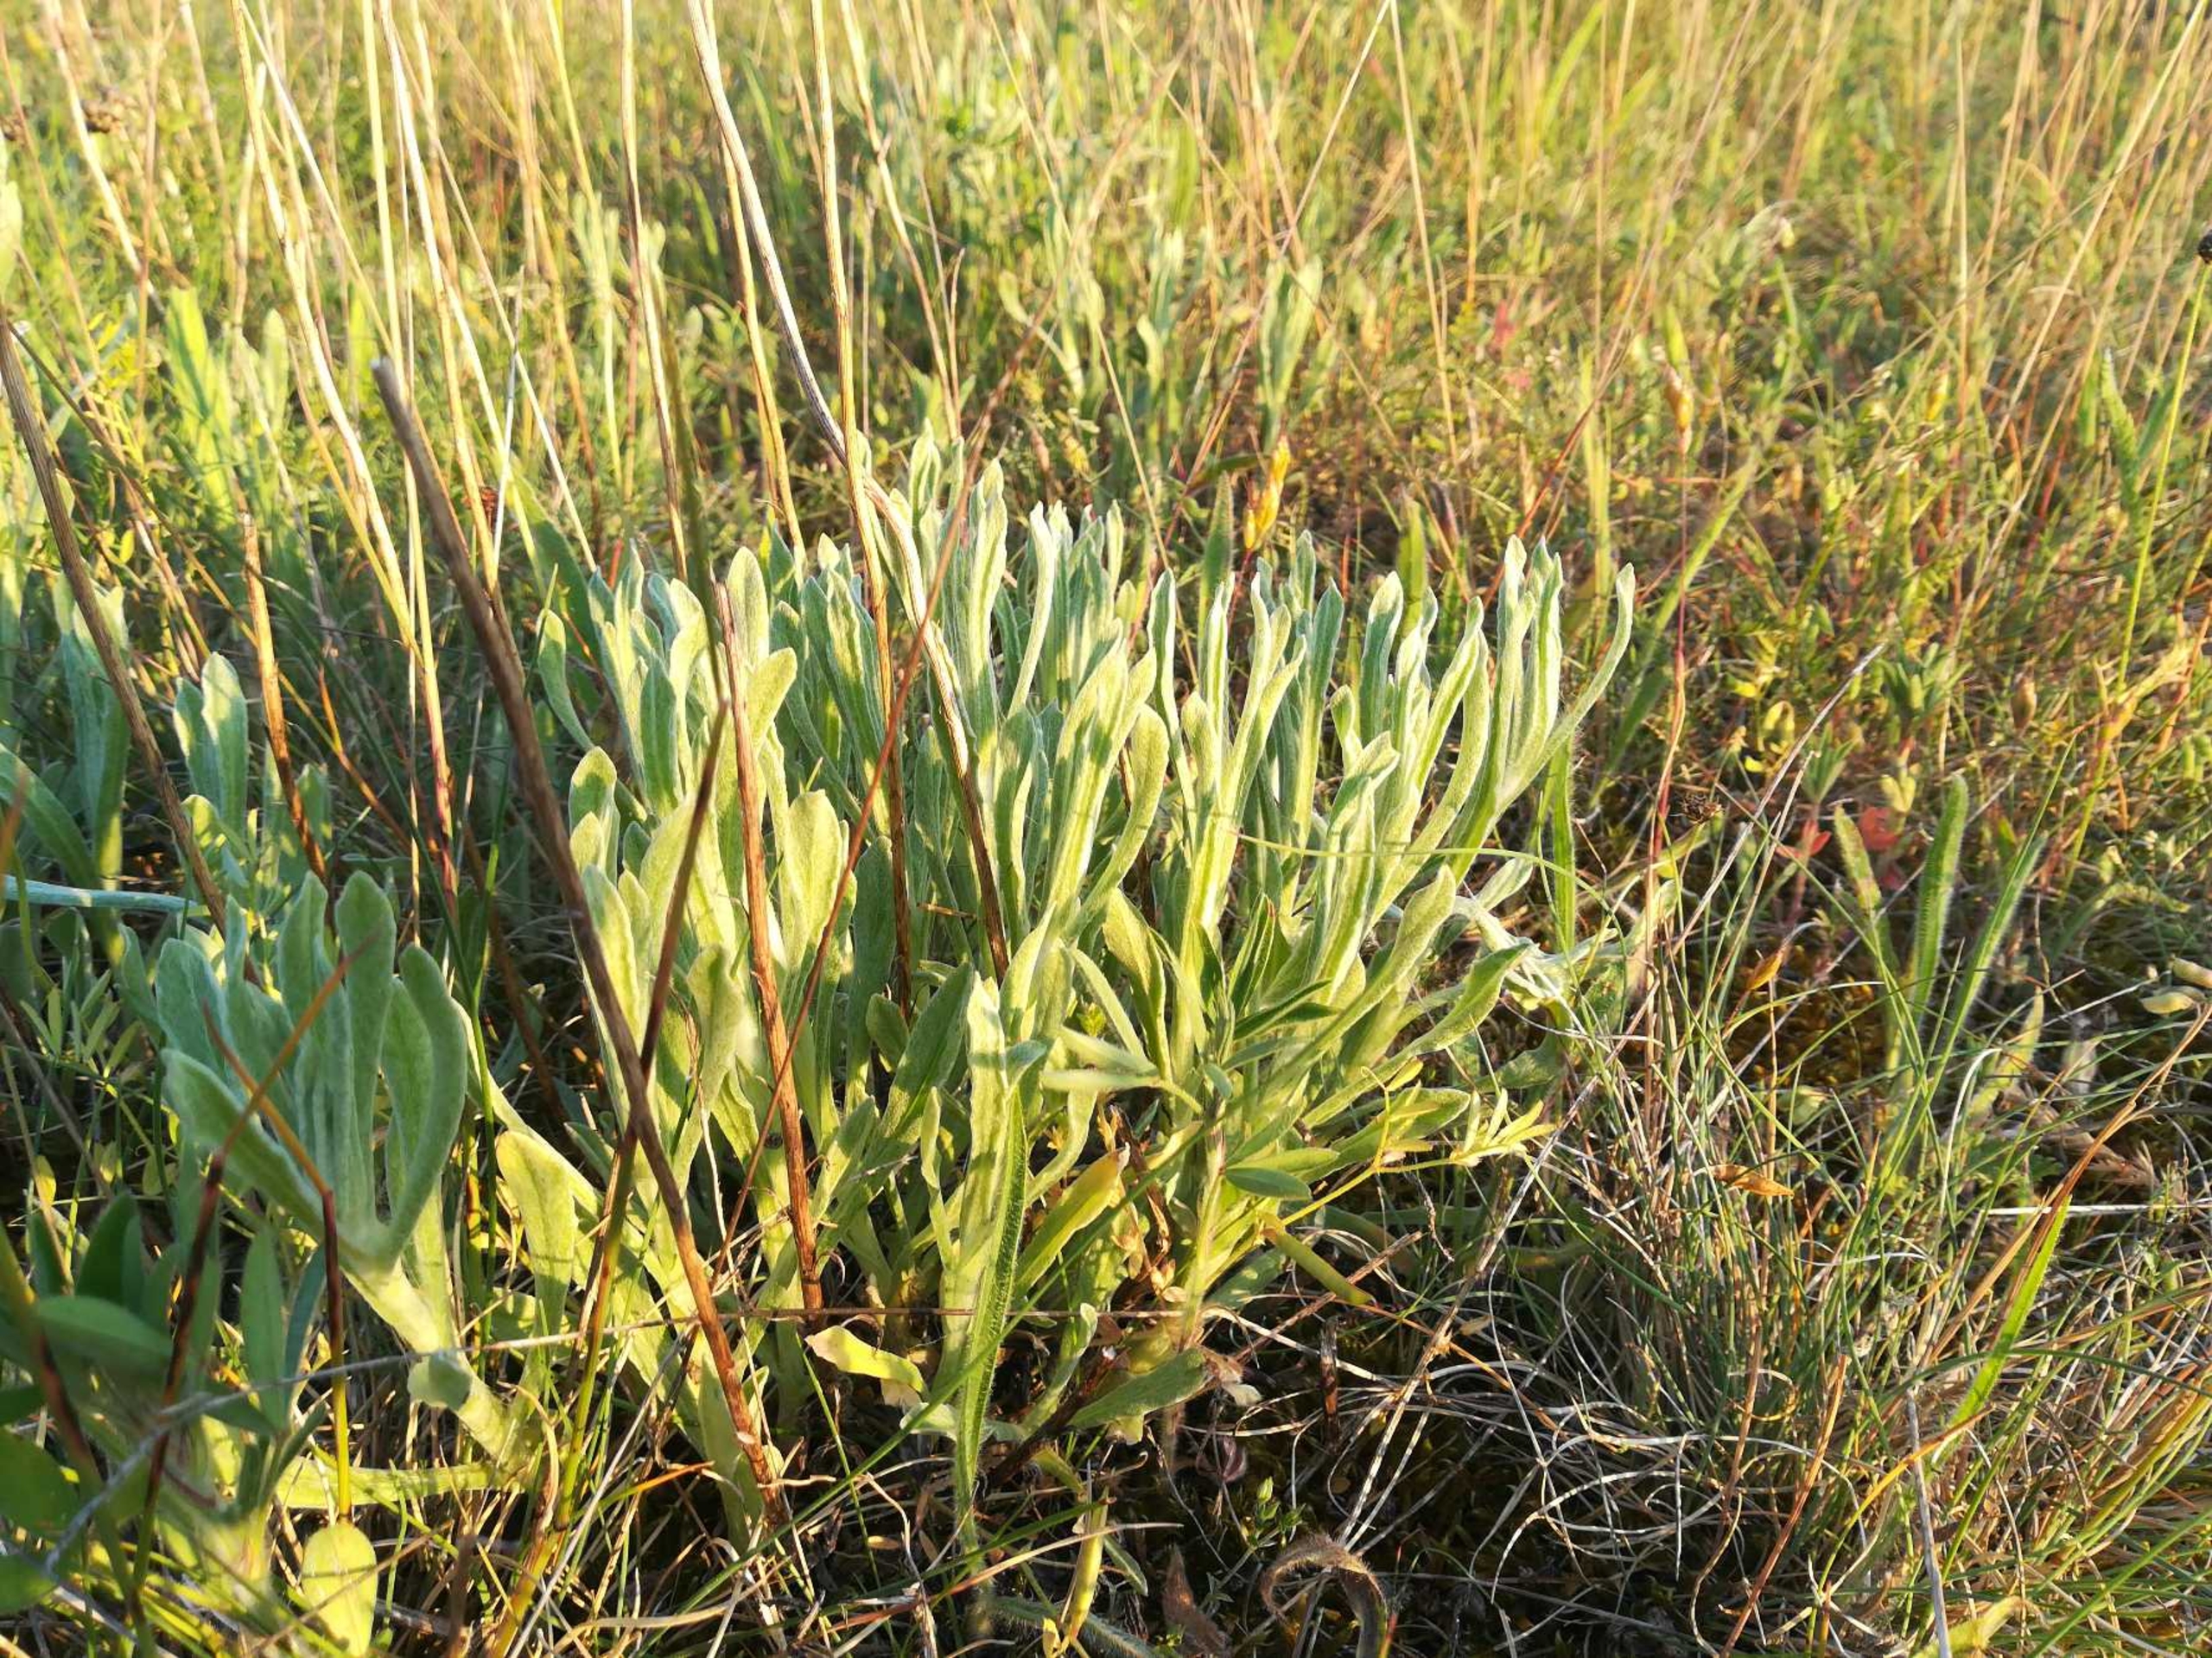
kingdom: Plantae
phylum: Tracheophyta
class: Magnoliopsida
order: Asterales
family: Asteraceae
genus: Helichrysum
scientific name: Helichrysum arenarium
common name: Gul evighedsblomst
